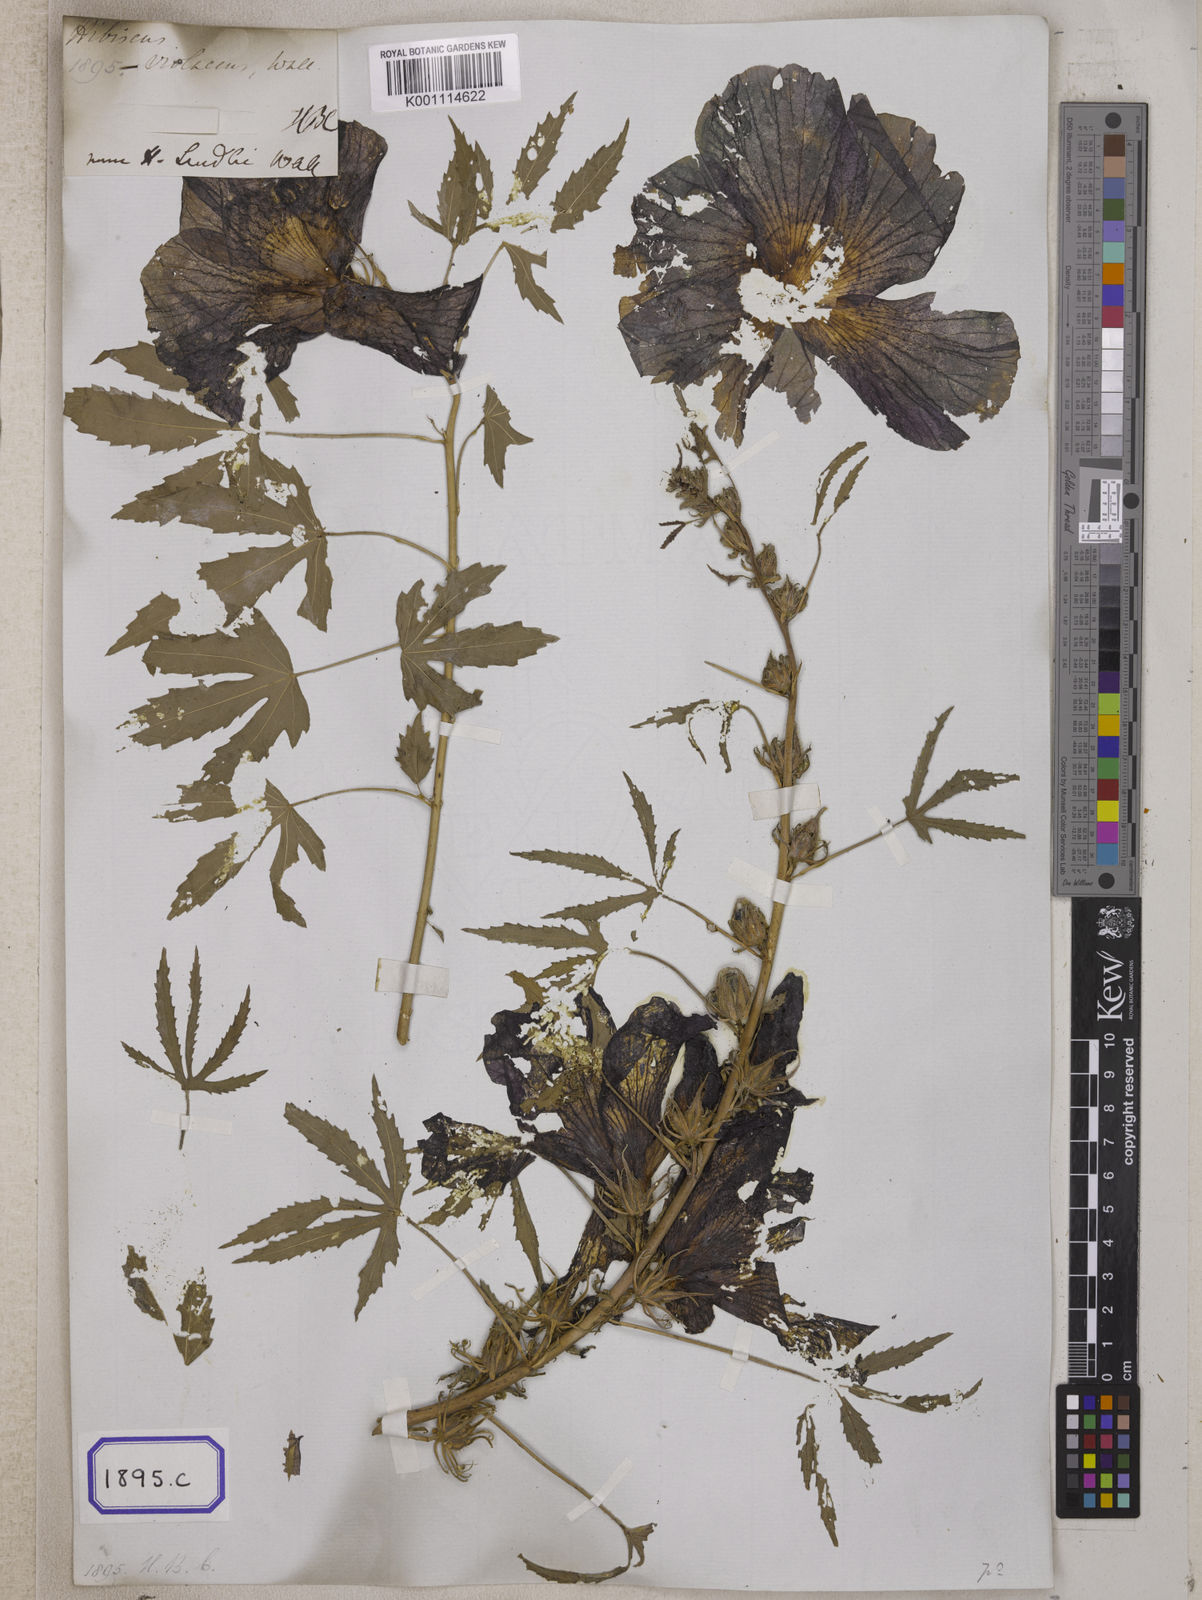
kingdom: Plantae
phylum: Tracheophyta
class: Magnoliopsida
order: Malvales
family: Malvaceae
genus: Hibiscus
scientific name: Hibiscus radiatus
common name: Monarch rosemallow
